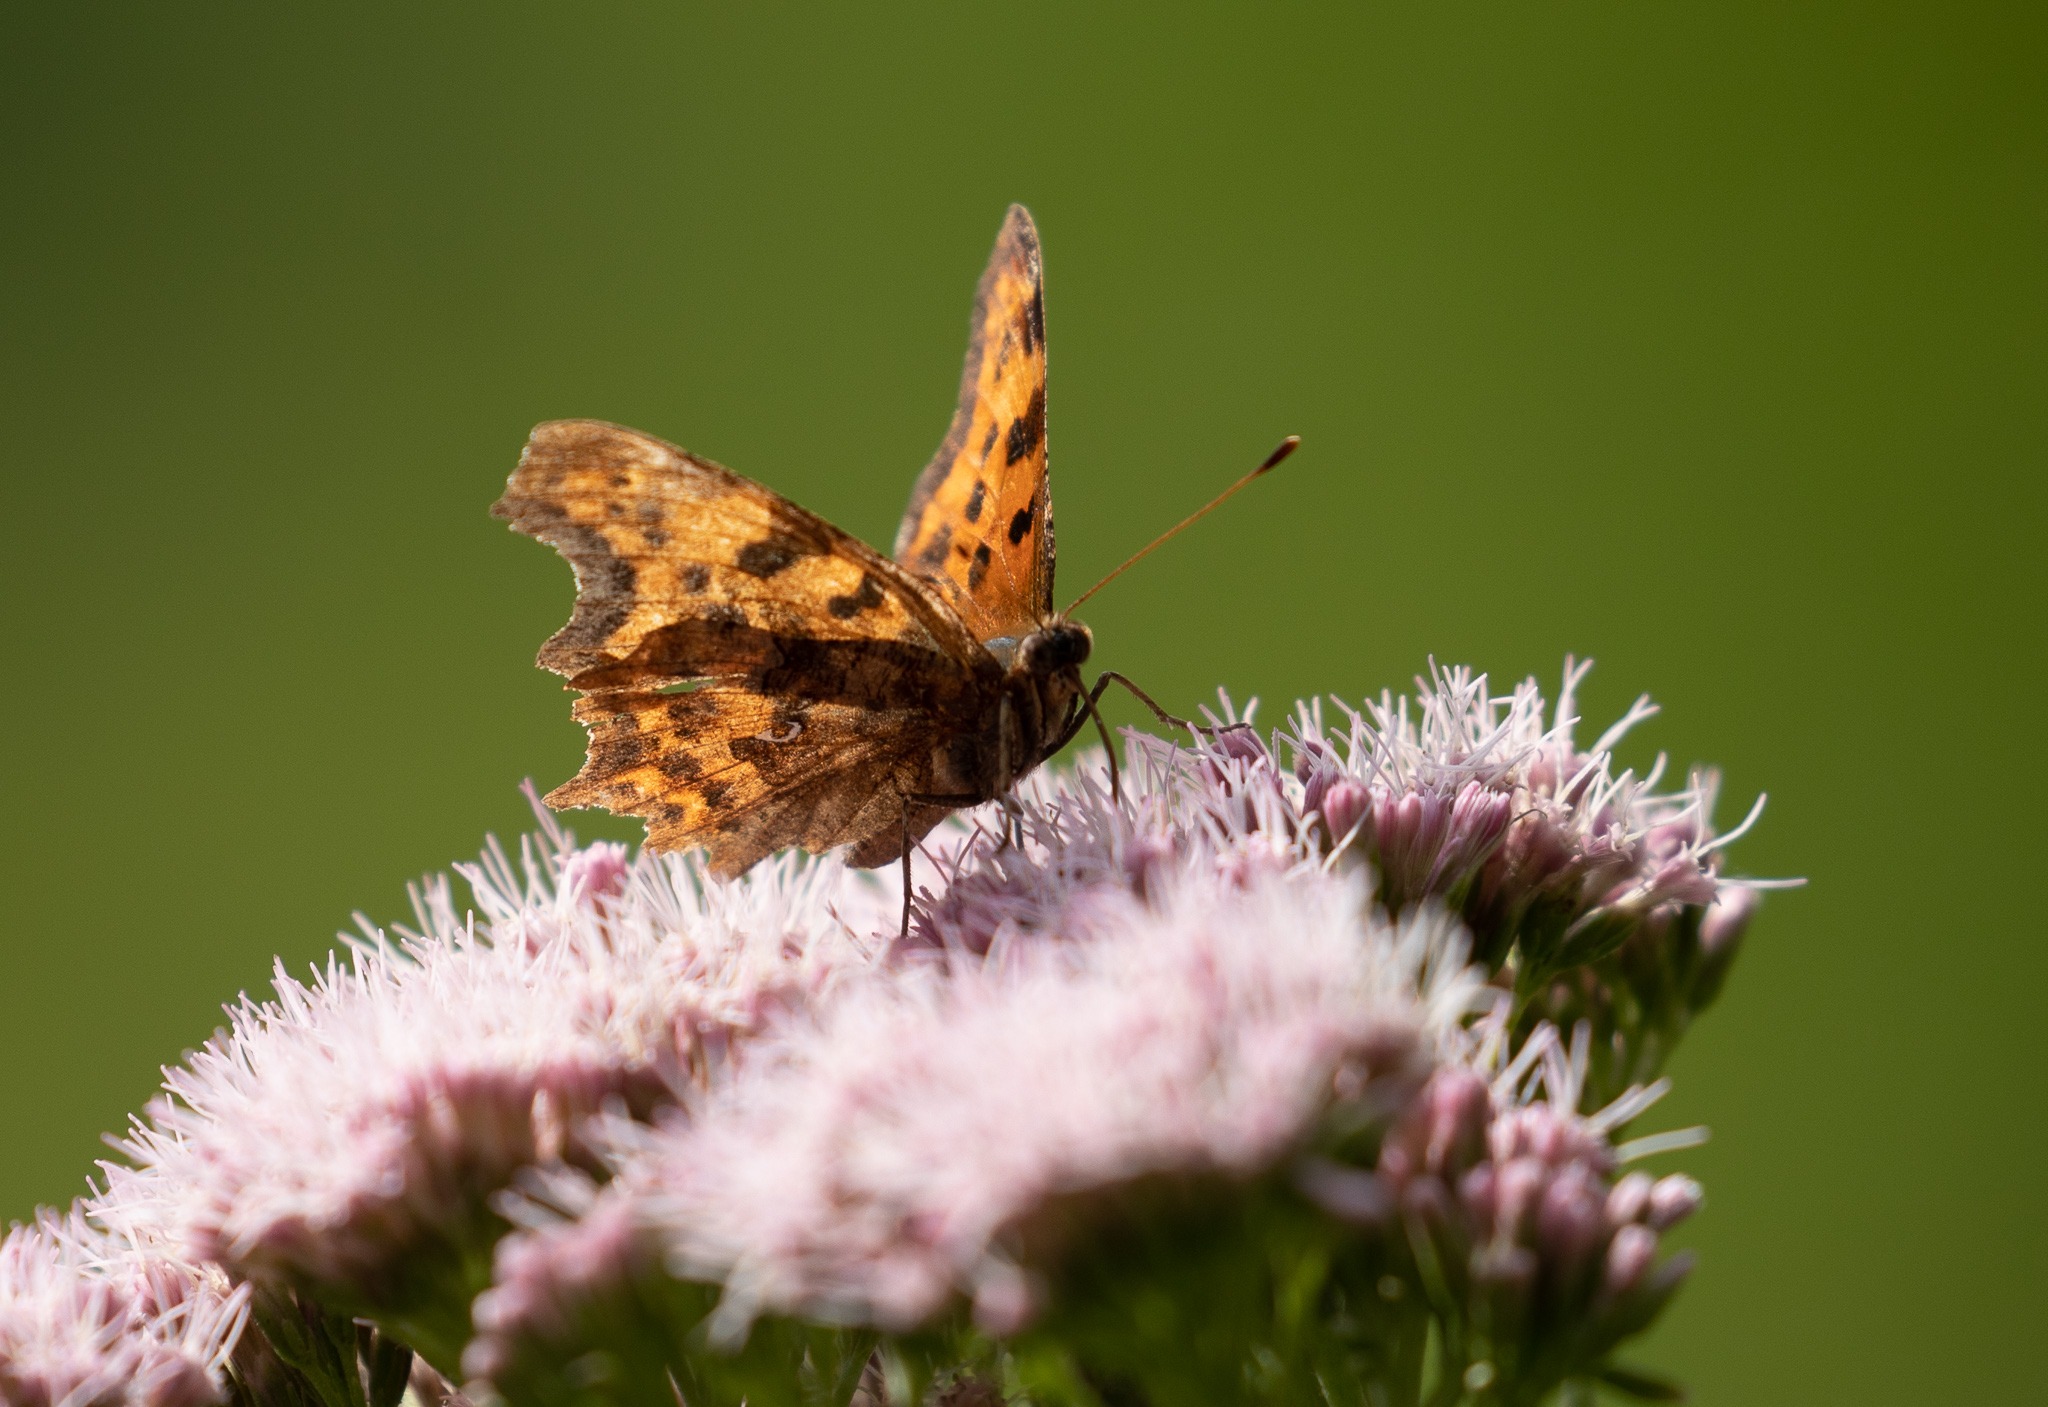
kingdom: Animalia
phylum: Arthropoda
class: Insecta
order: Lepidoptera
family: Nymphalidae
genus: Polygonia
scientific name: Polygonia c-album
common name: Det hvide C
